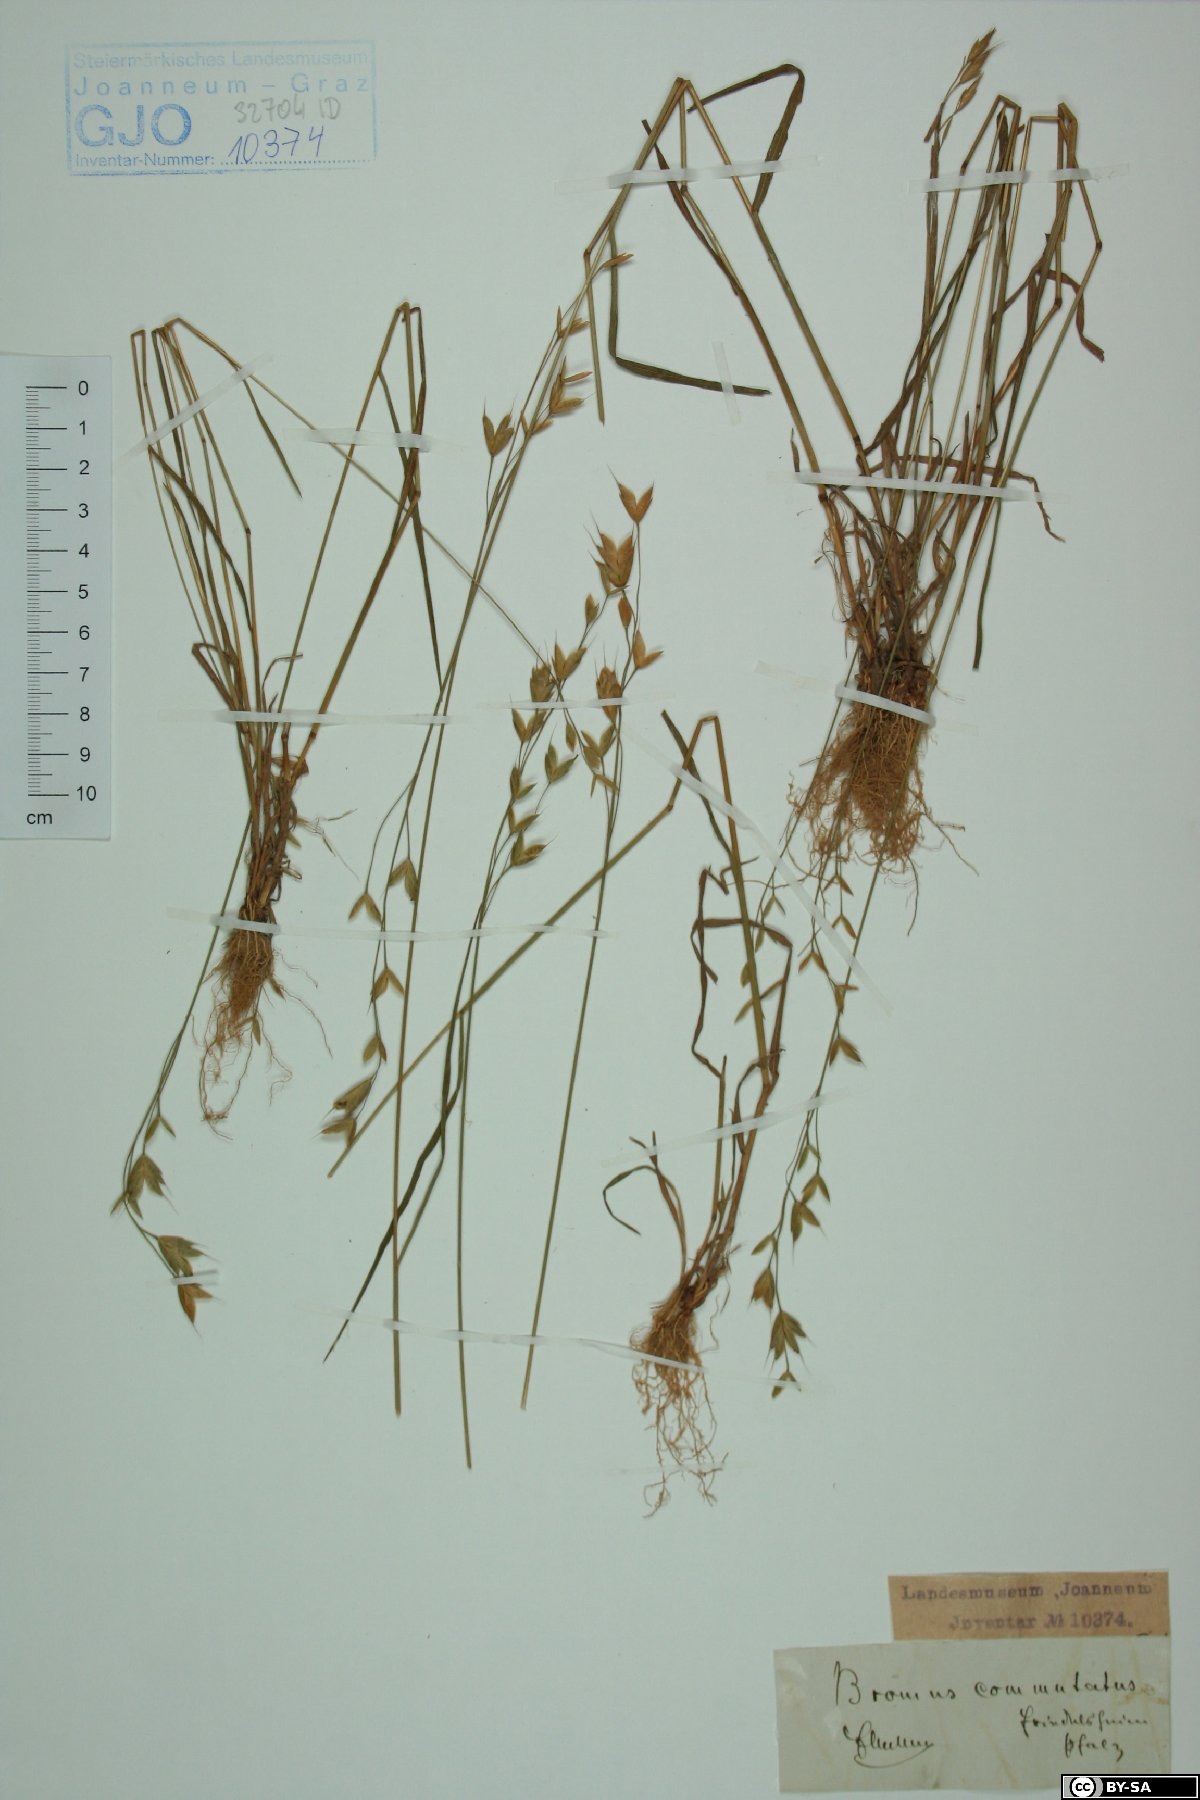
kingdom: Plantae
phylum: Tracheophyta
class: Liliopsida
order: Poales
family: Poaceae
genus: Bromus
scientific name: Bromus commutatus
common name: Meadow brome
